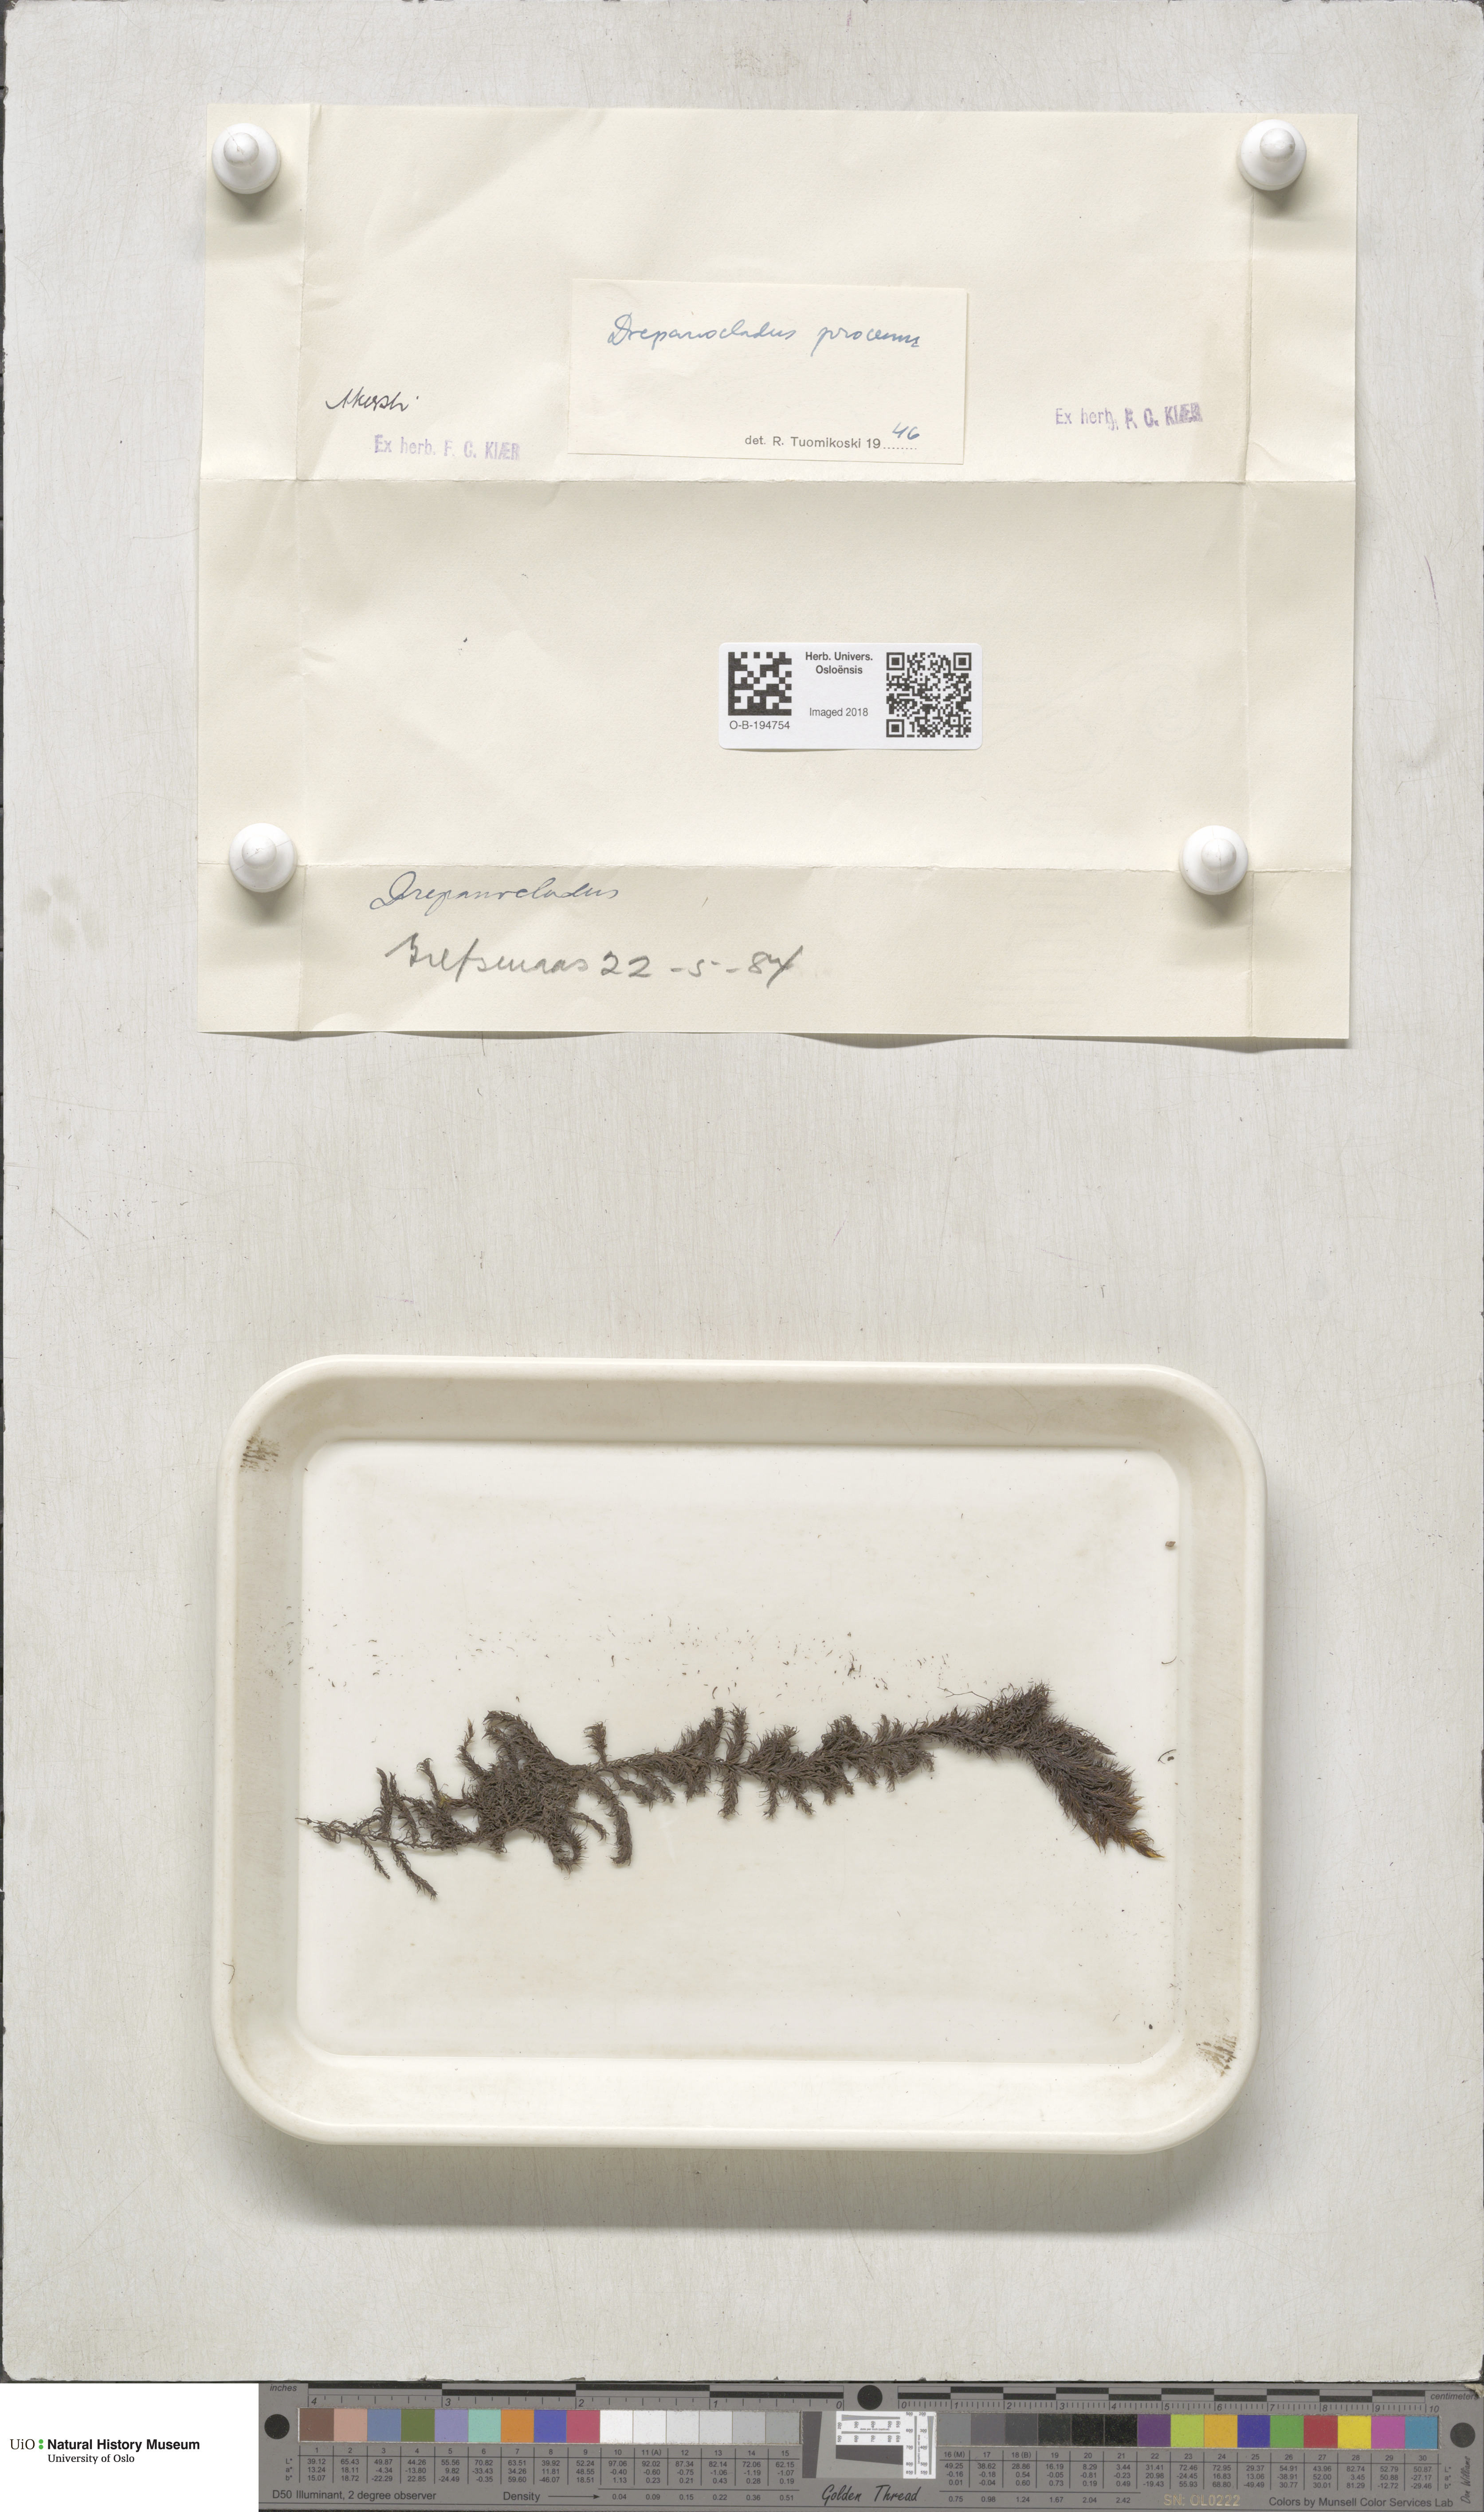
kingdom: Plantae
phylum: Bryophyta
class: Bryopsida
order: Hypnales
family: Calliergonaceae
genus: Sarmentypnum
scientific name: Sarmentypnum exannulatum
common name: Ringless spoon moss
